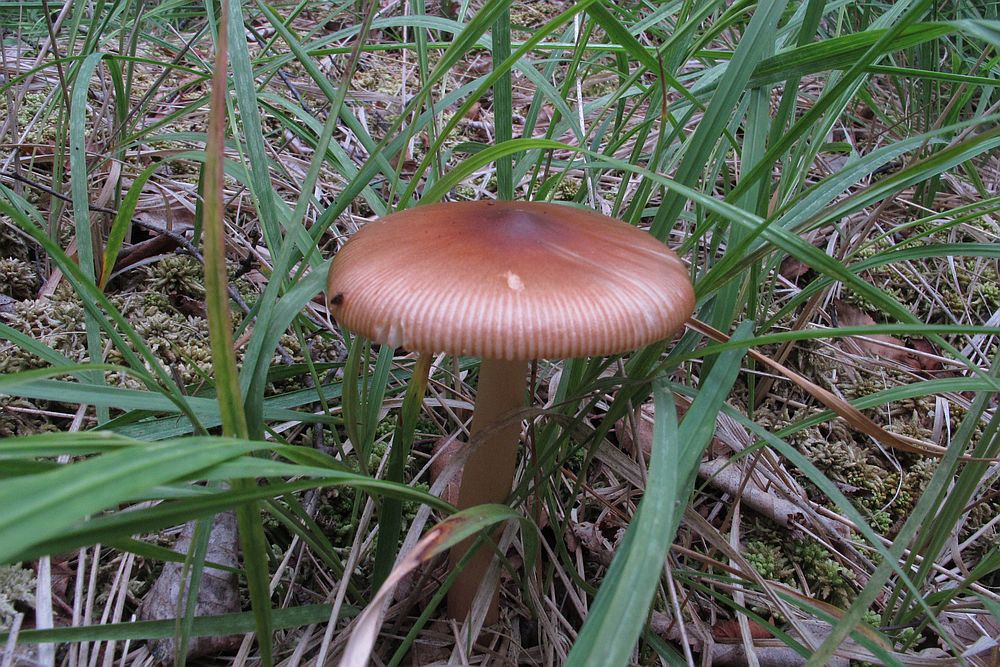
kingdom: Fungi
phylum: Basidiomycota
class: Agaricomycetes
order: Agaricales
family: Amanitaceae
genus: Amanita
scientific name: Amanita fulva
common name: brun kam-fluesvamp
